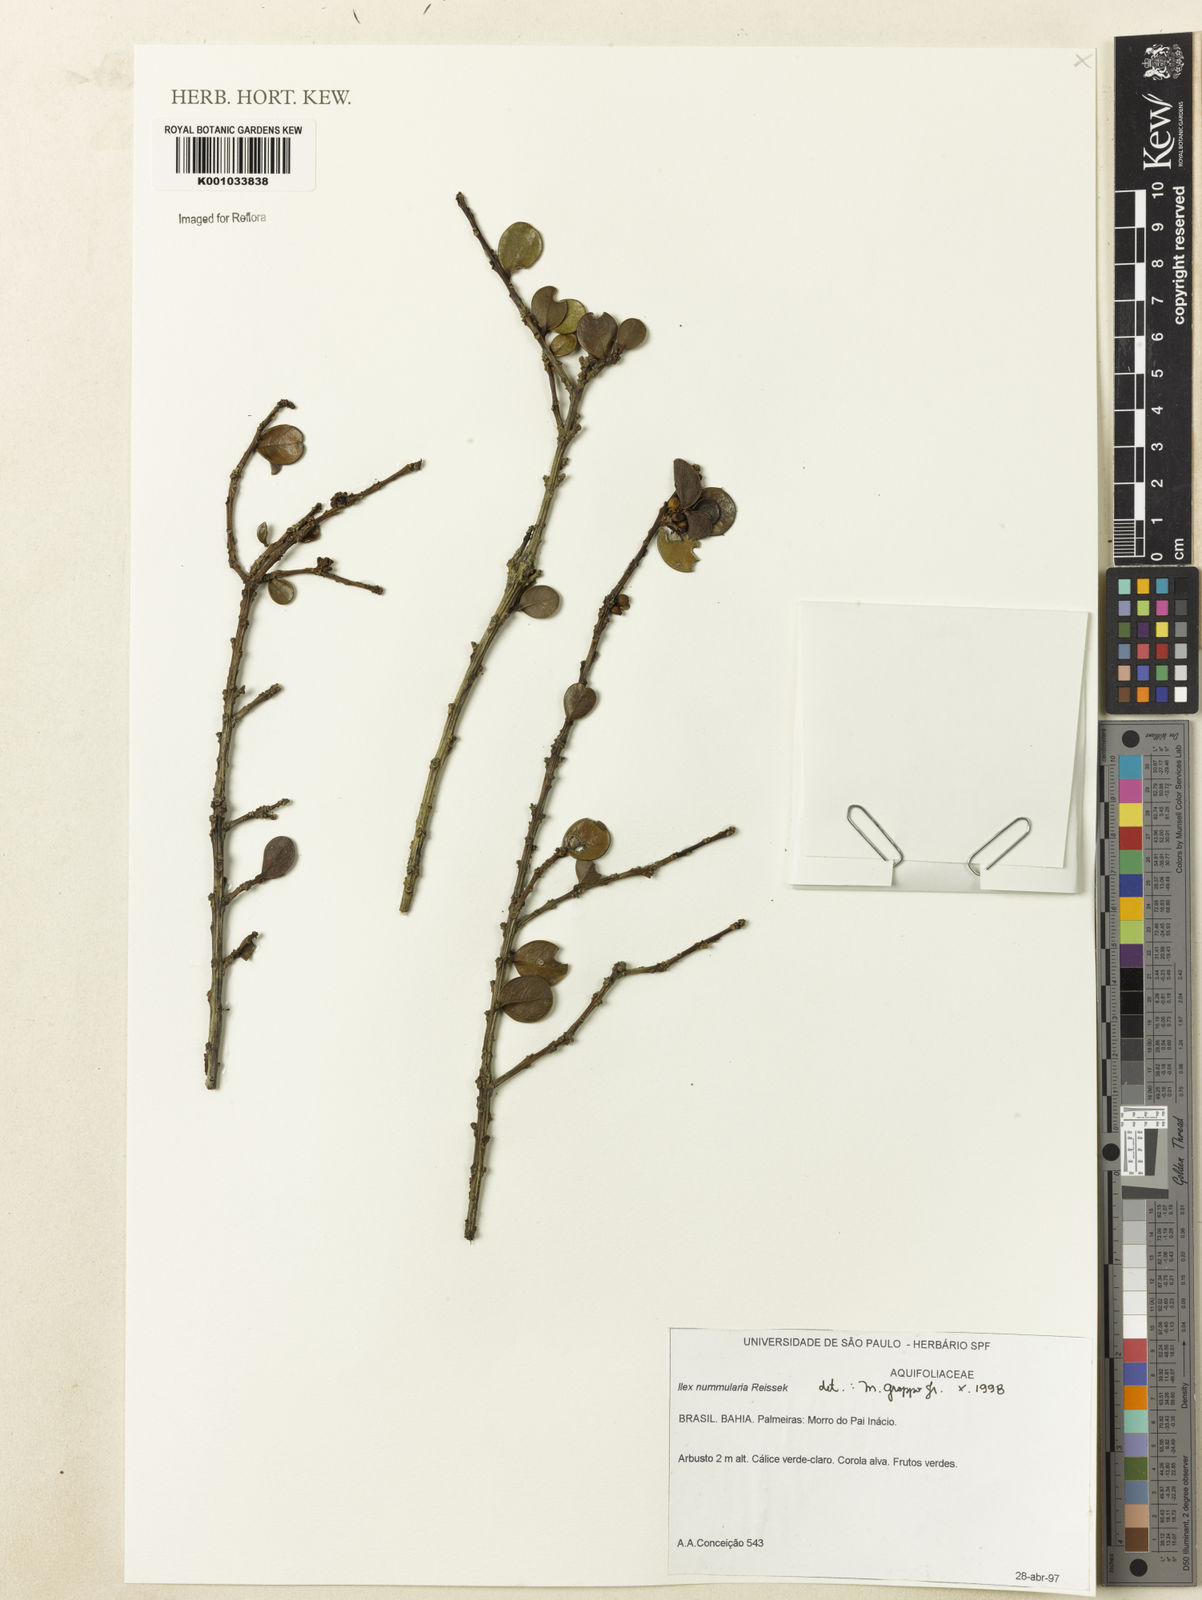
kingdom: Plantae
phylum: Tracheophyta
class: Magnoliopsida
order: Aquifoliales
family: Aquifoliaceae
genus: Ilex
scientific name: Ilex nummularia
